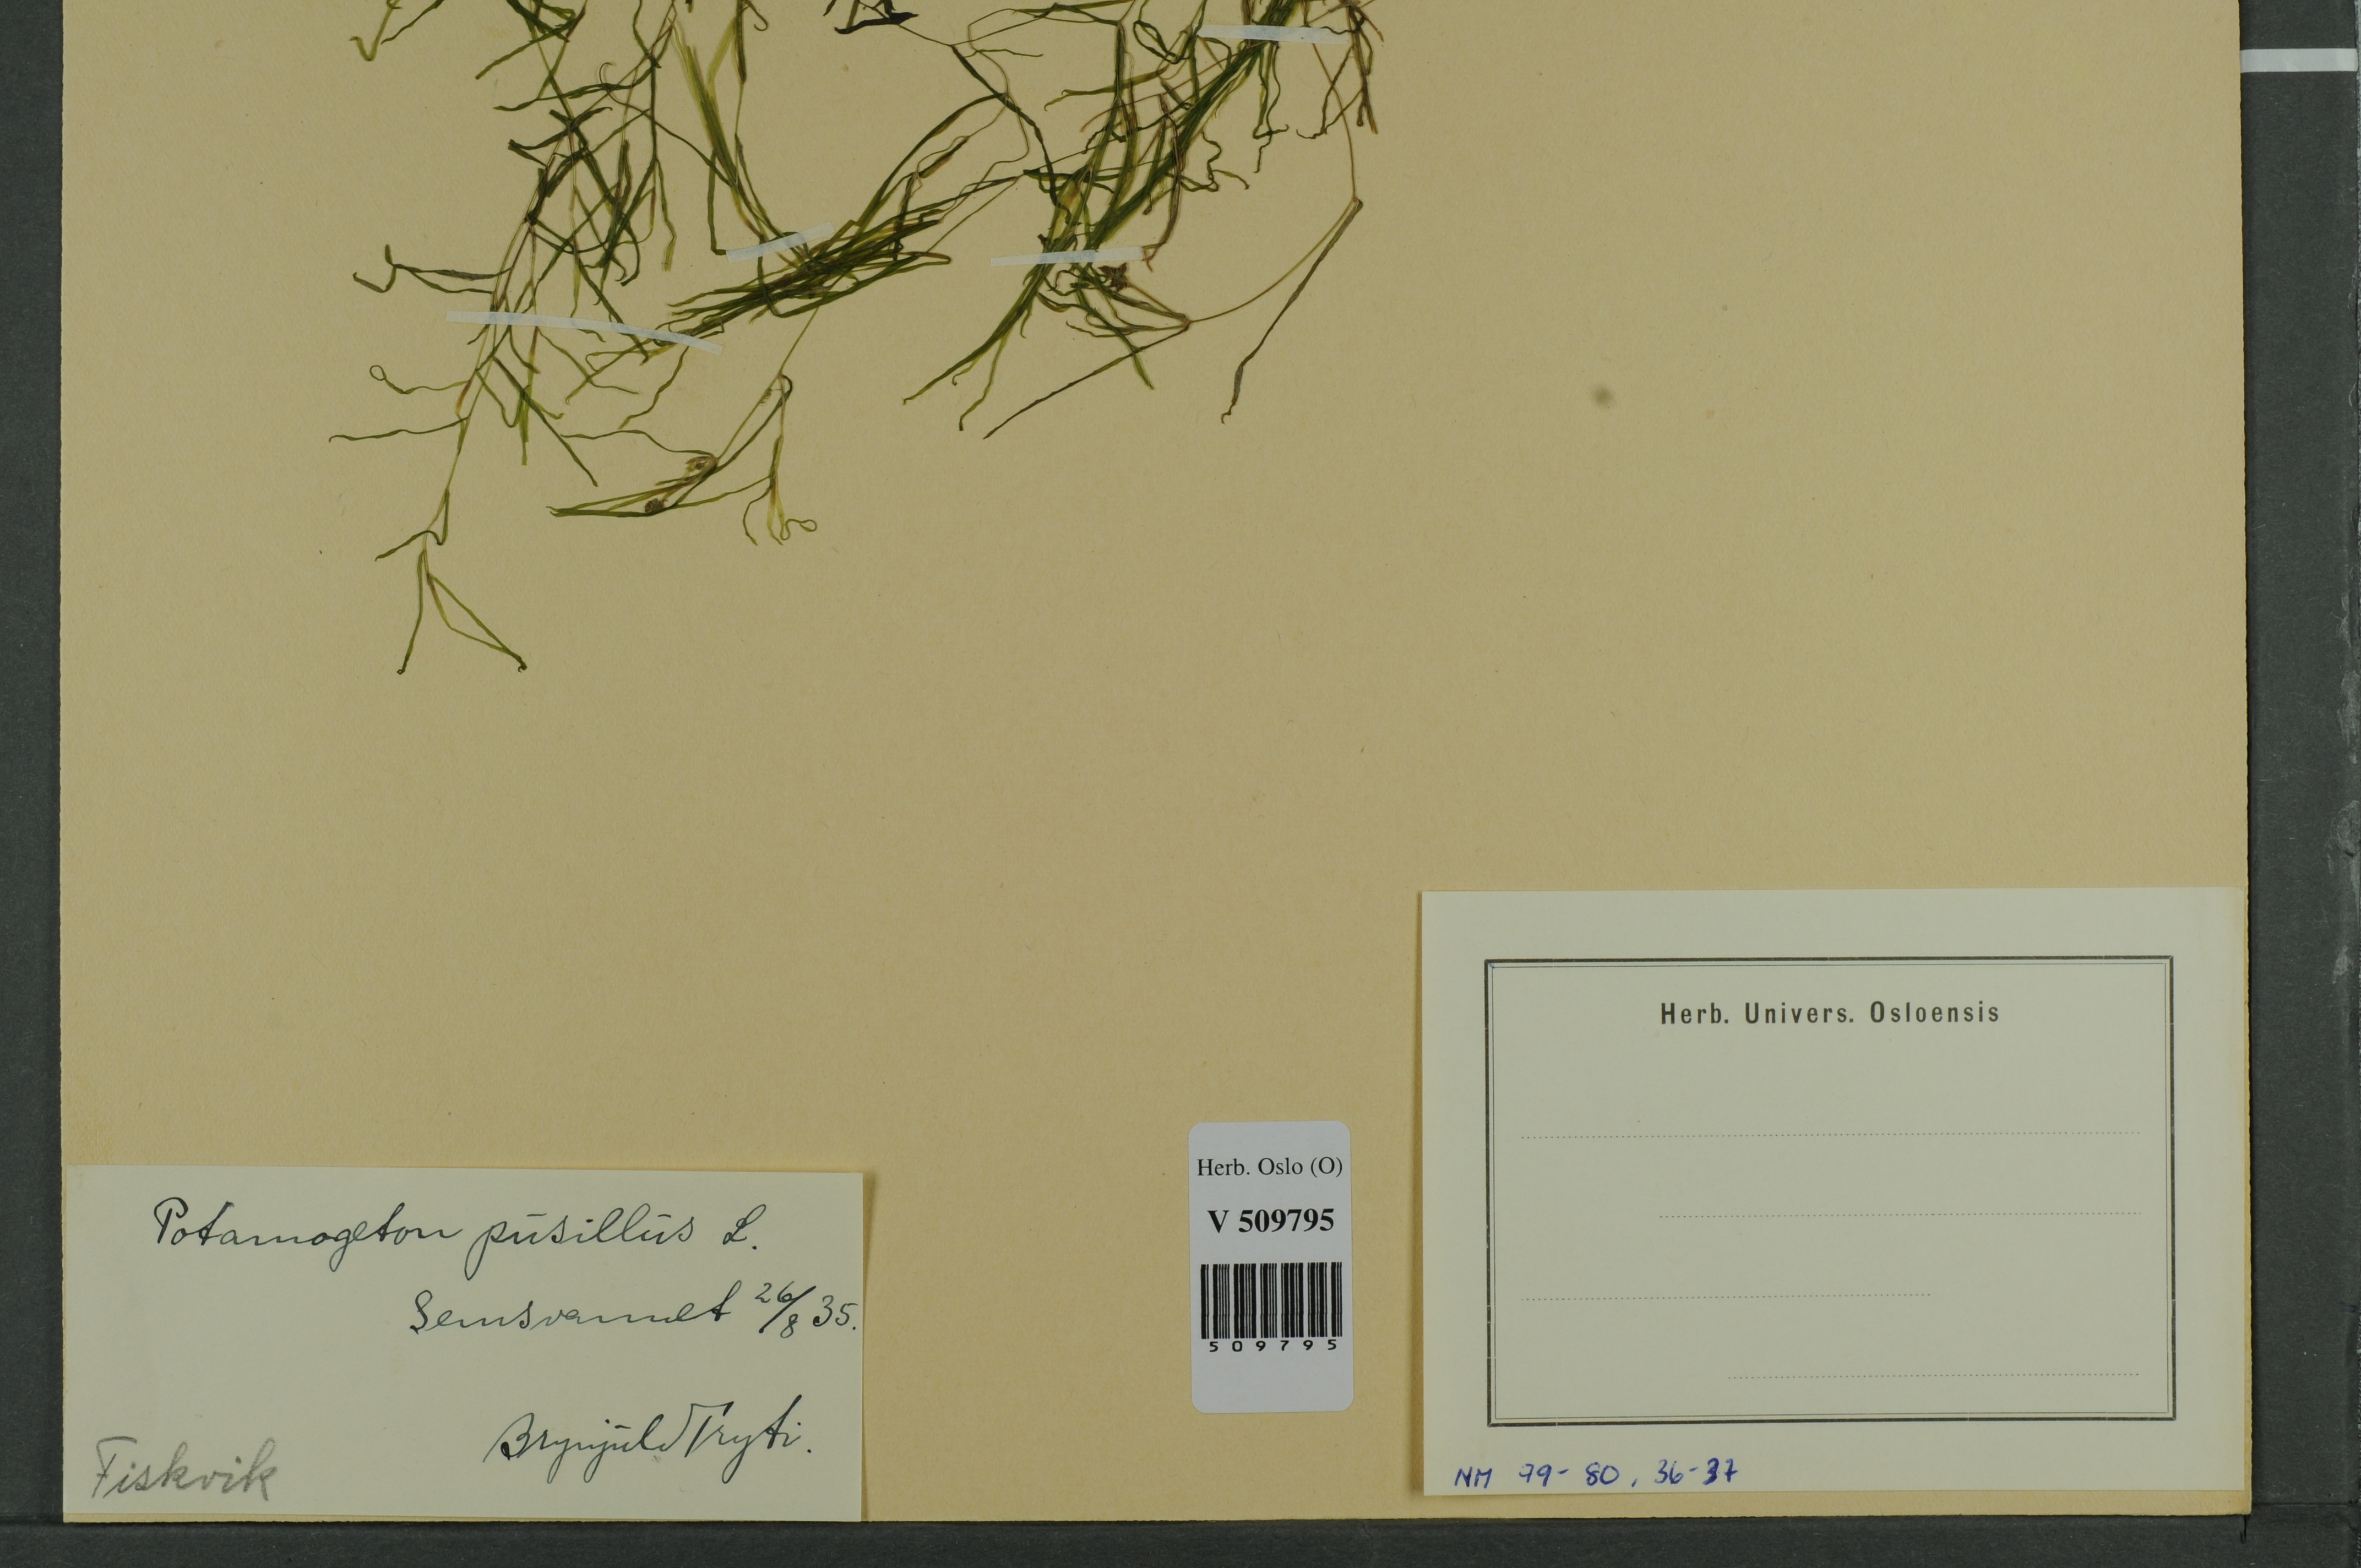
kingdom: Plantae
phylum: Tracheophyta
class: Liliopsida
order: Alismatales
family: Potamogetonaceae
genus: Potamogeton
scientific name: Potamogeton berchtoldii
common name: Small pondweed
